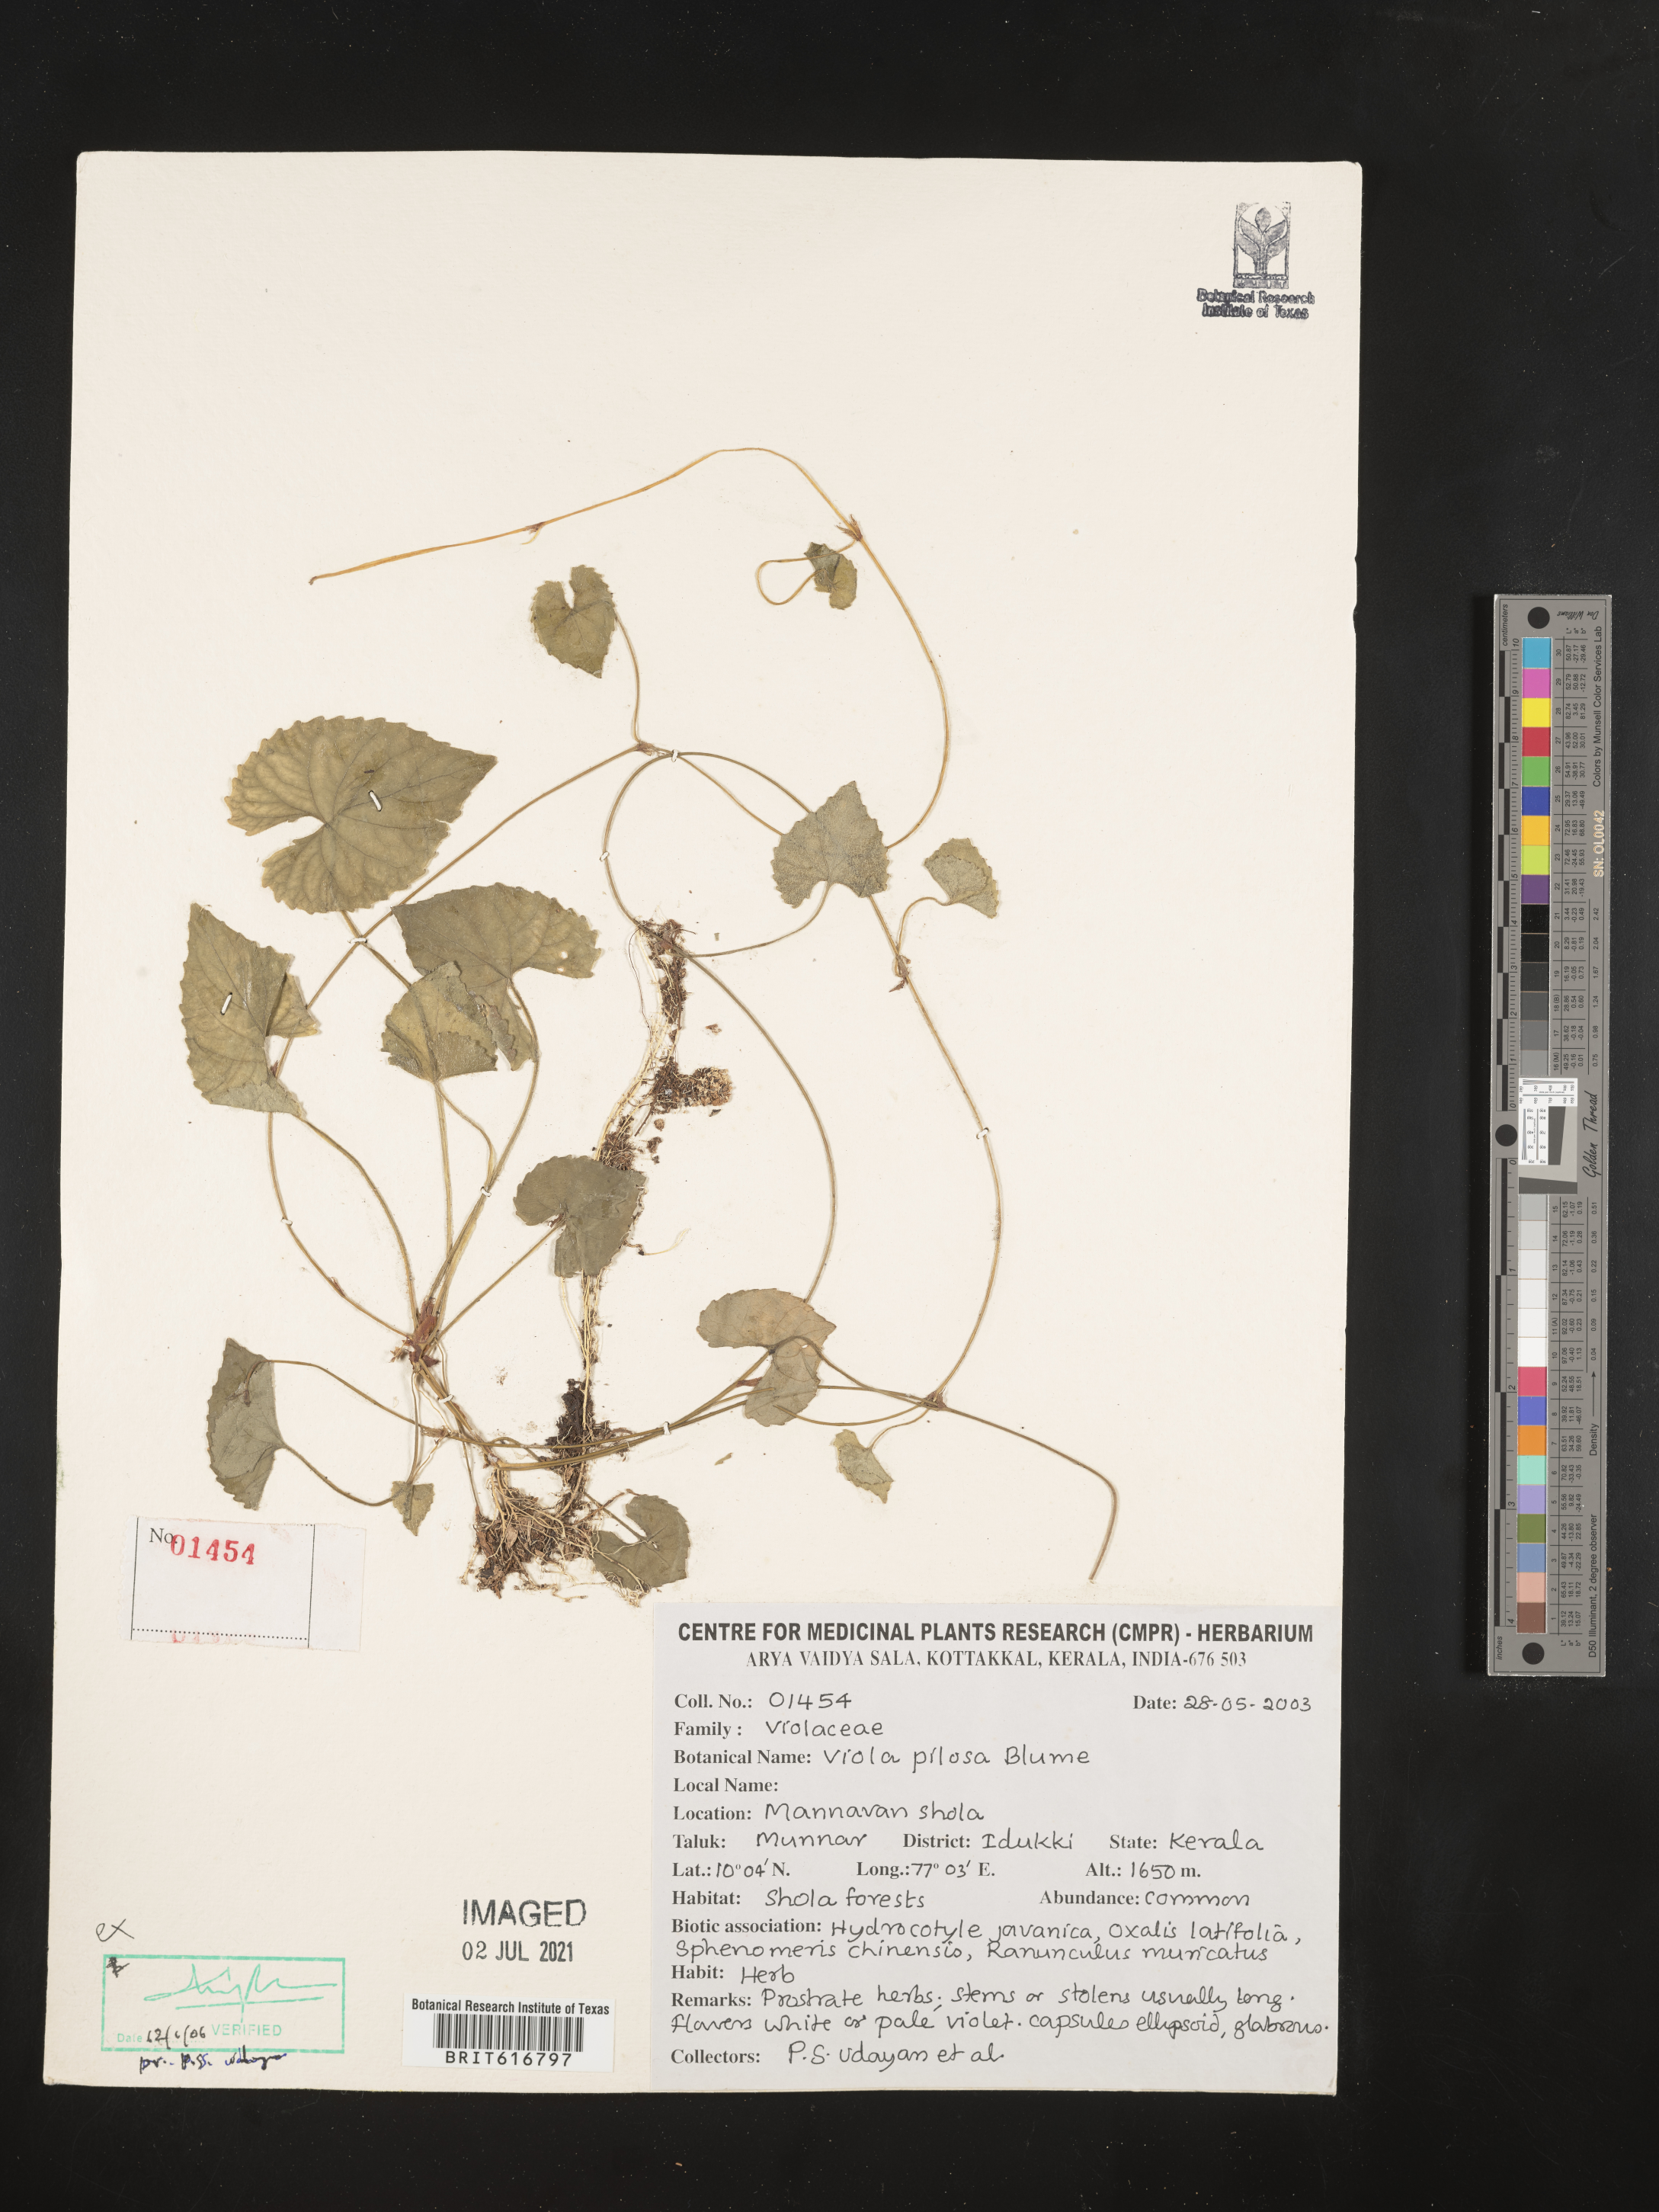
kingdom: Plantae
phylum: Tracheophyta
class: Magnoliopsida
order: Malpighiales
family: Violaceae
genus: Viola
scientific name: Viola pilosa
